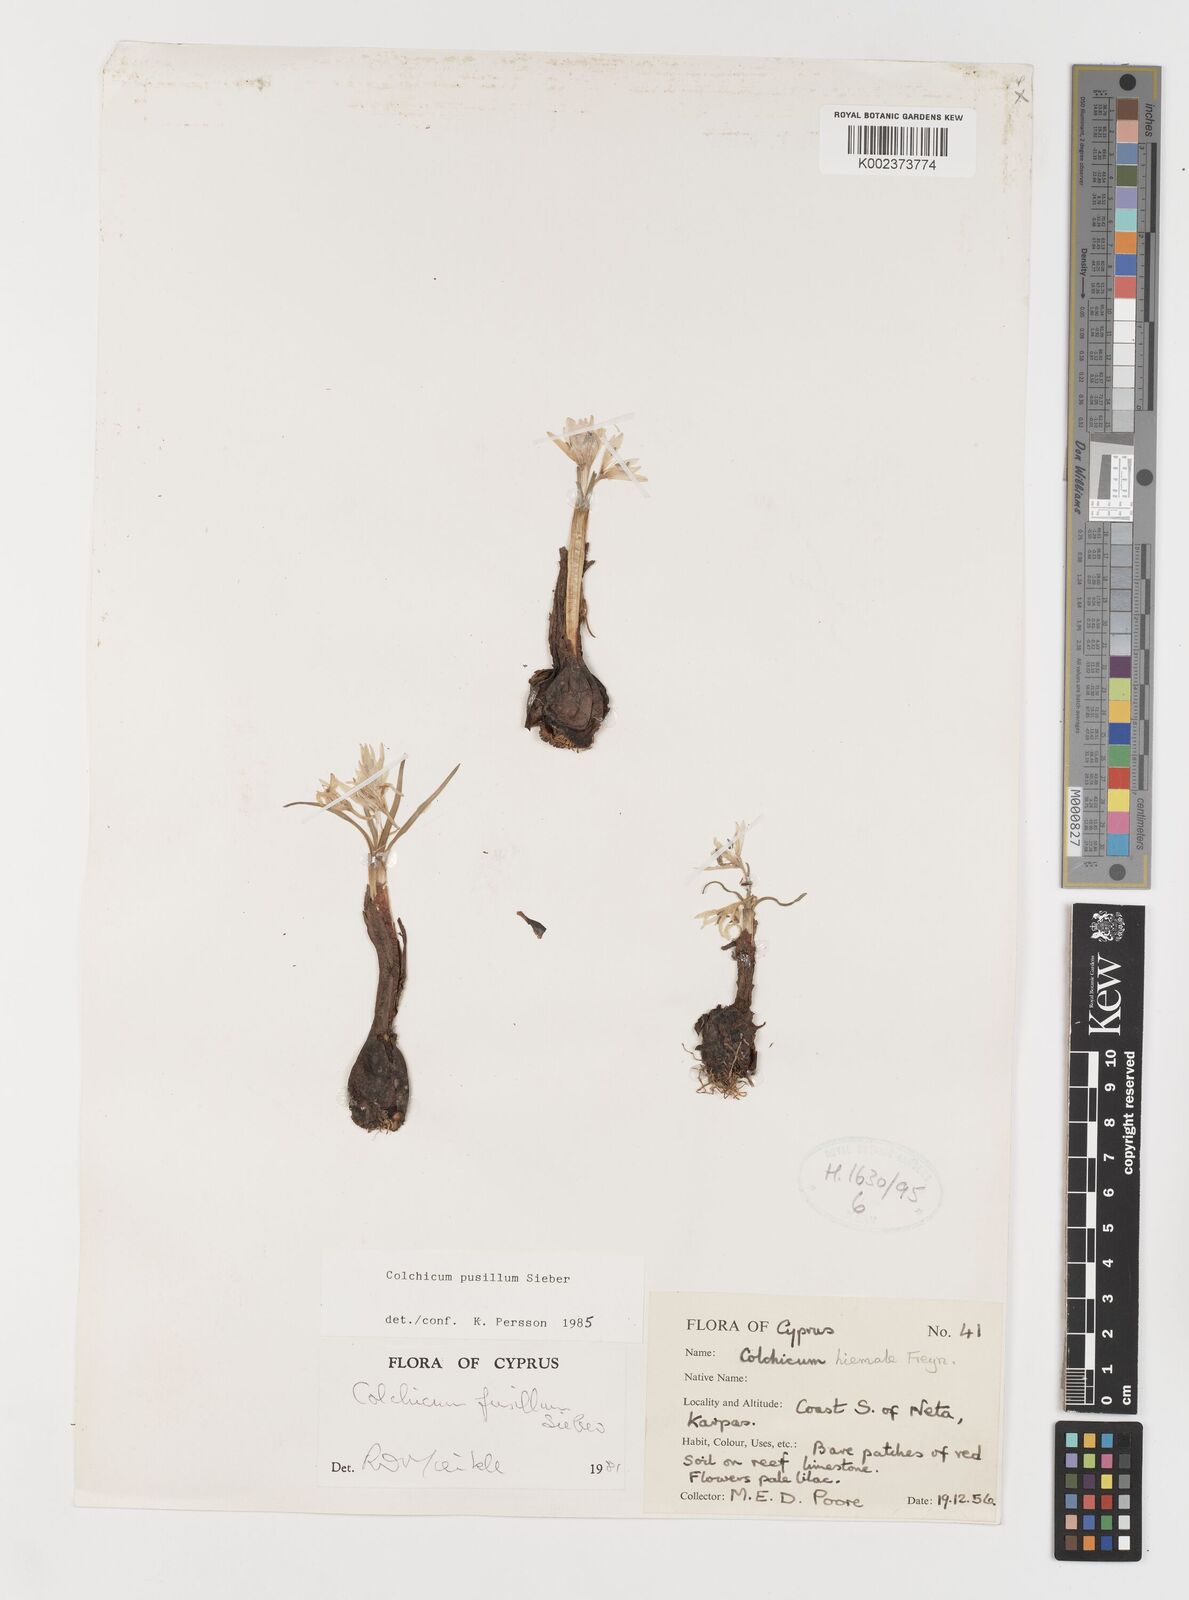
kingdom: Plantae
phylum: Tracheophyta
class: Liliopsida
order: Liliales
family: Colchicaceae
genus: Colchicum
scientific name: Colchicum pusillum
